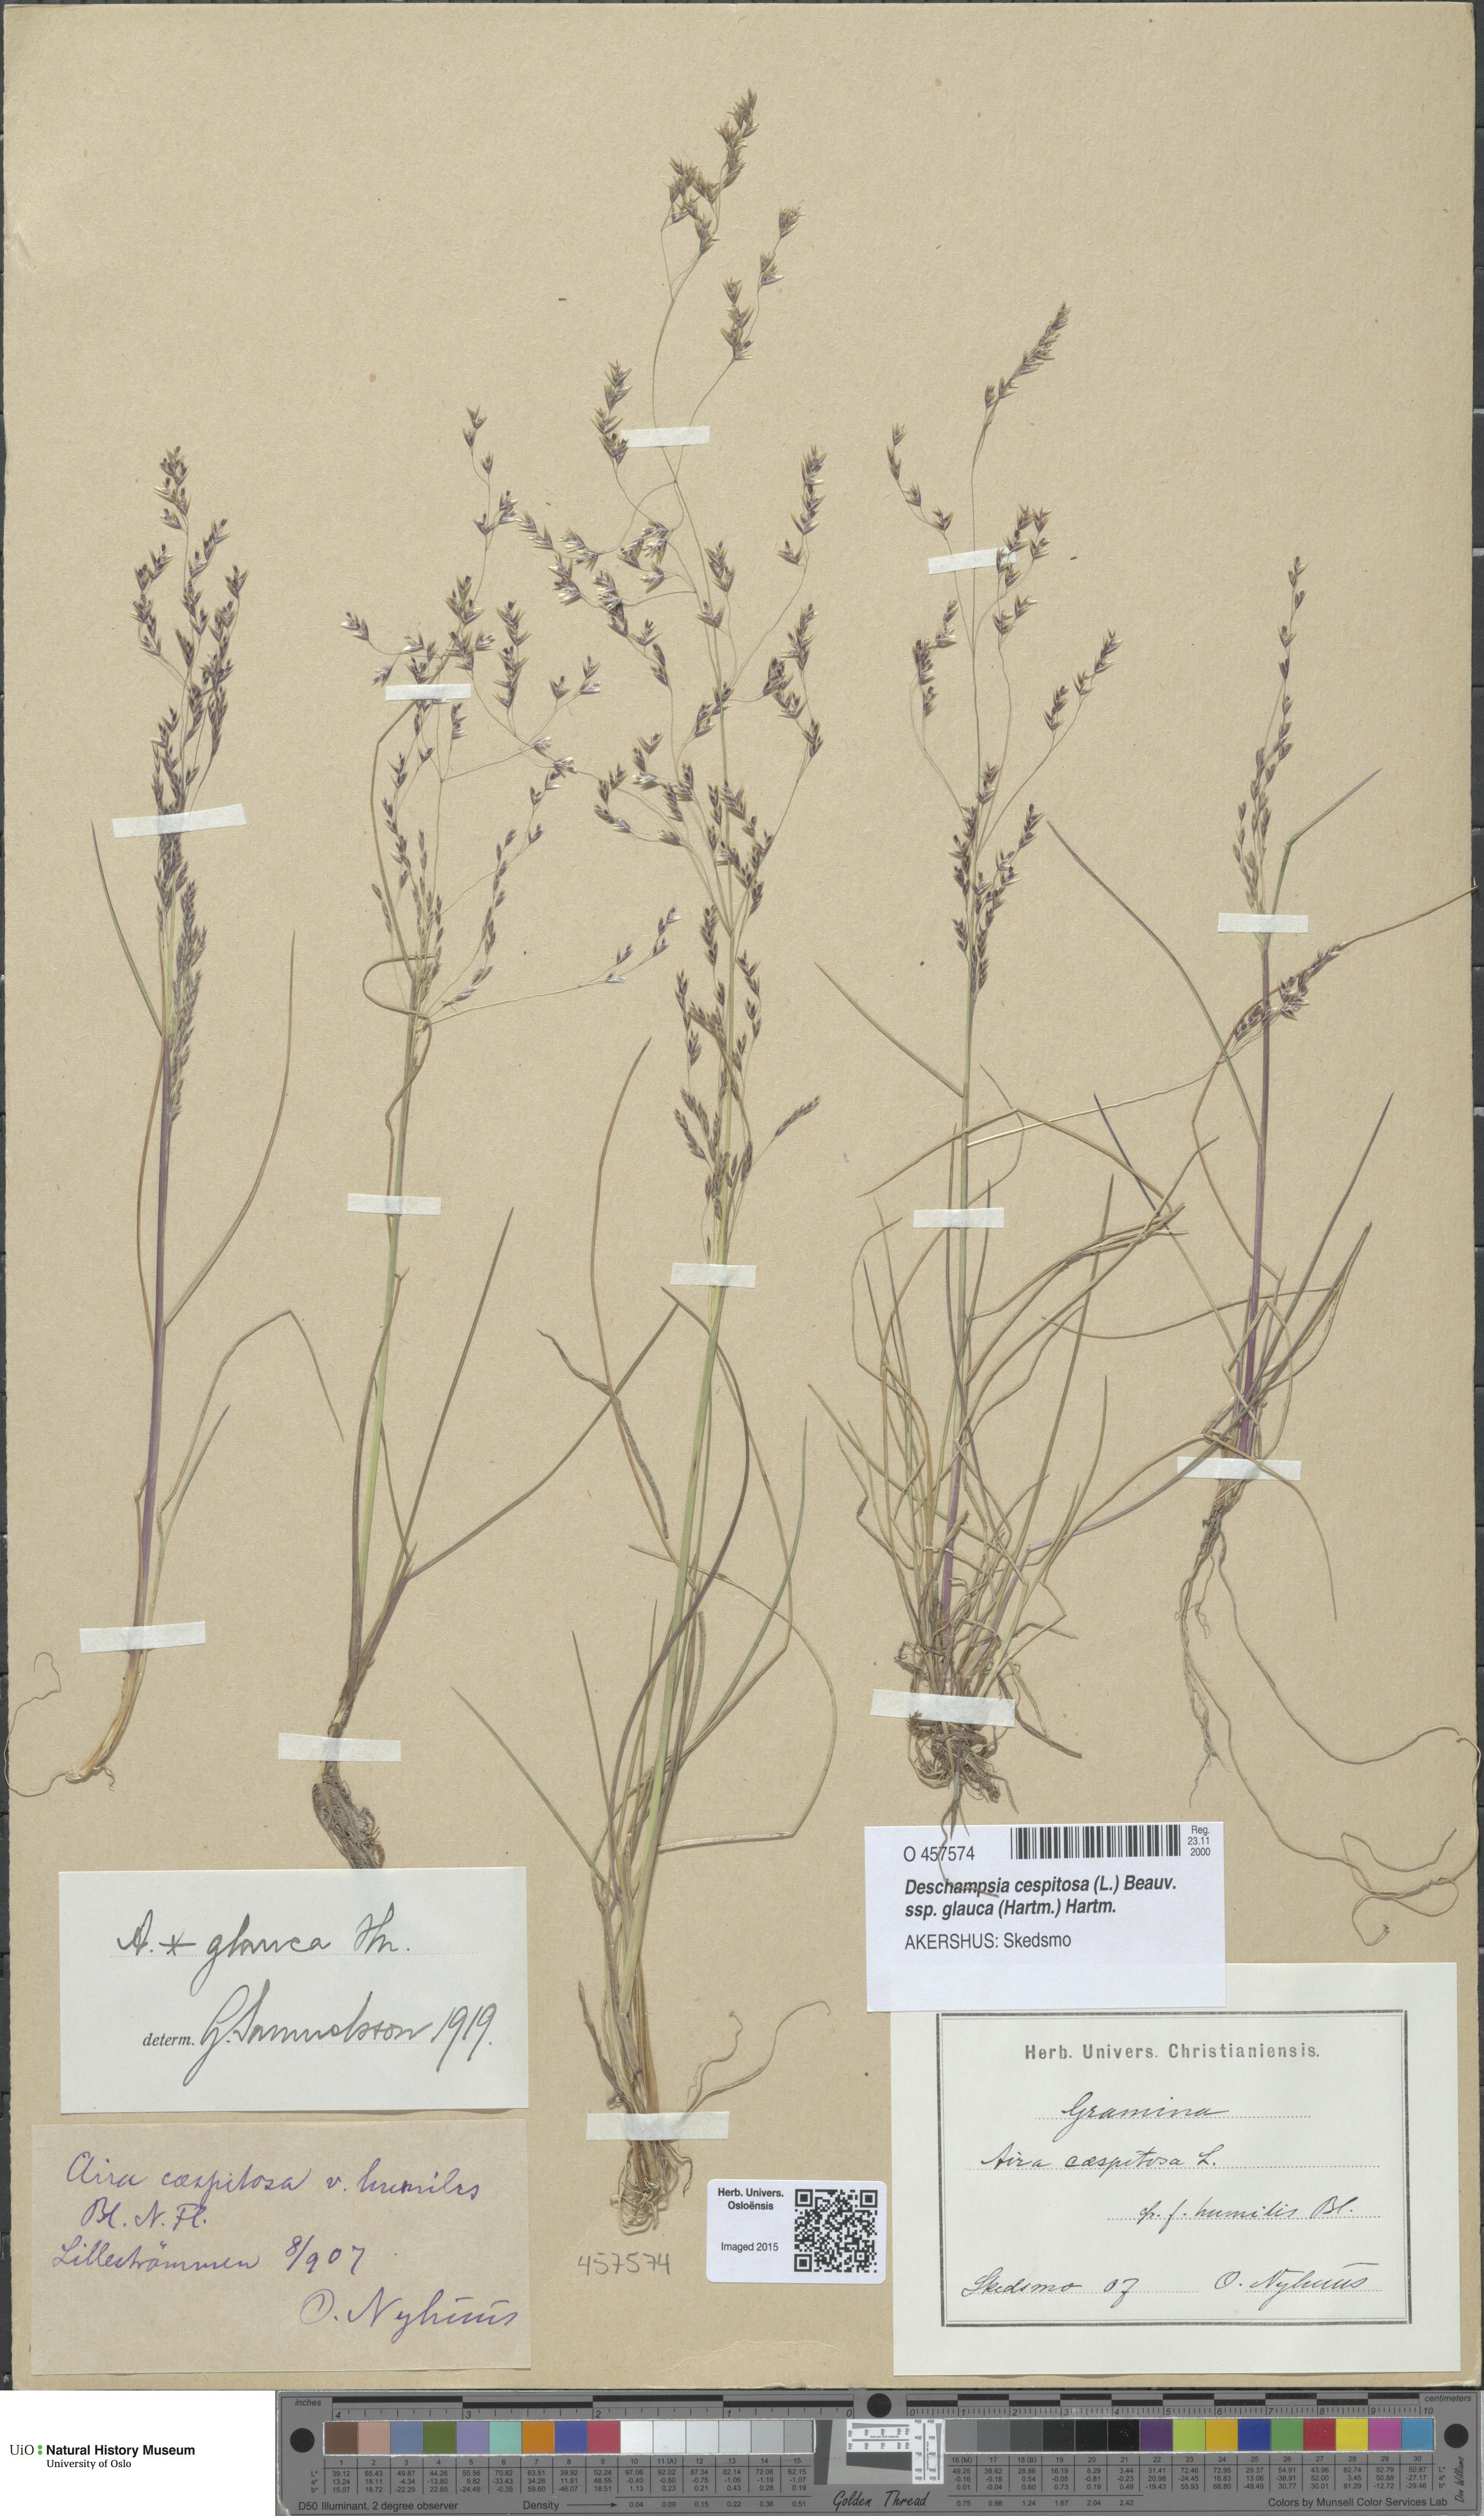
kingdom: Plantae
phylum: Tracheophyta
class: Liliopsida
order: Poales
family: Poaceae
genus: Deschampsia
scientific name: Deschampsia cespitosa
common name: Tufted hair-grass
